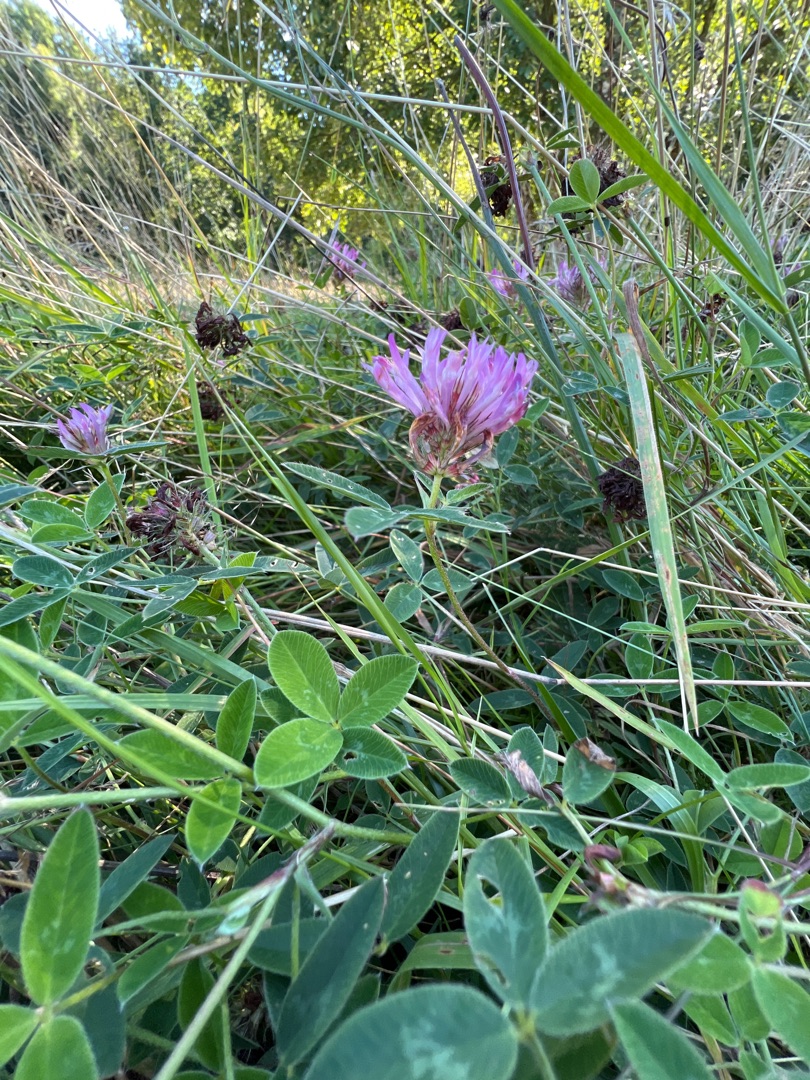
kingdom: Plantae
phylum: Tracheophyta
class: Magnoliopsida
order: Fabales
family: Fabaceae
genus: Trifolium
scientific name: Trifolium medium
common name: Bugtet kløver
